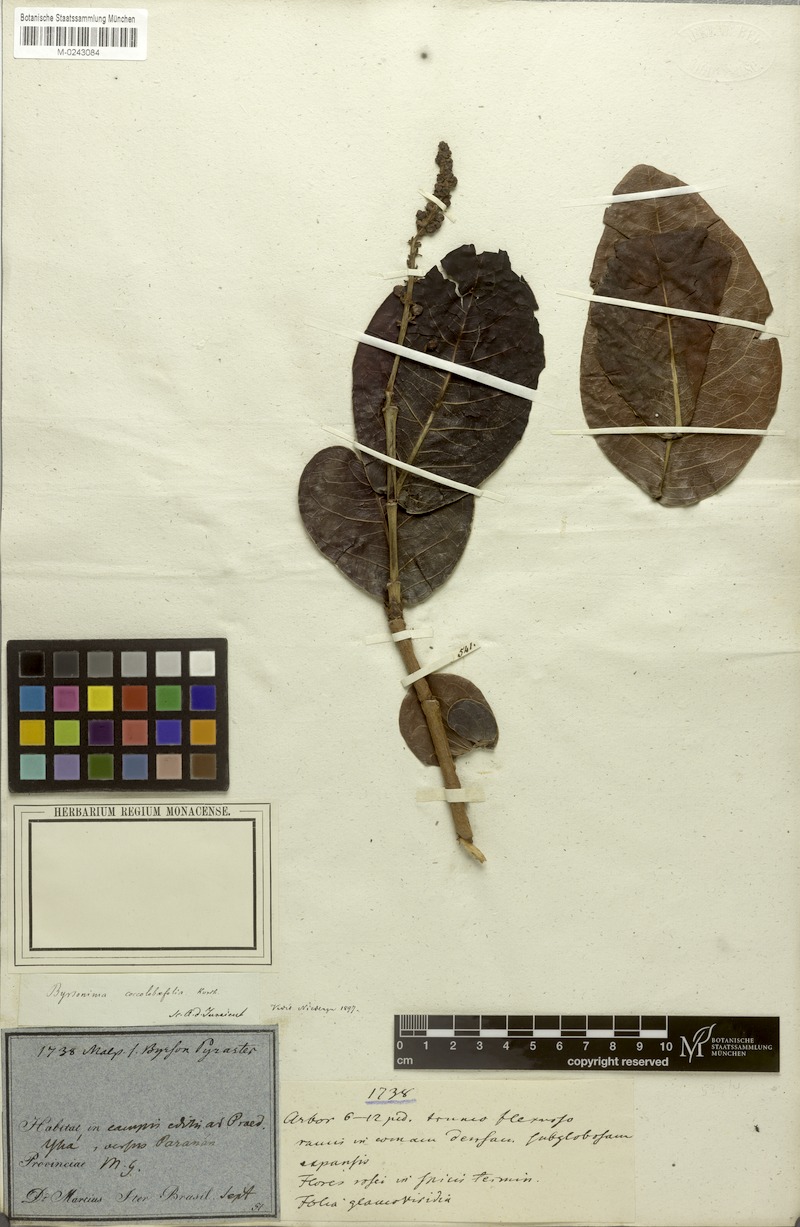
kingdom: Plantae
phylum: Tracheophyta
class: Magnoliopsida
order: Malpighiales
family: Malpighiaceae
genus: Byrsonima
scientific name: Byrsonima coccolobifolia
